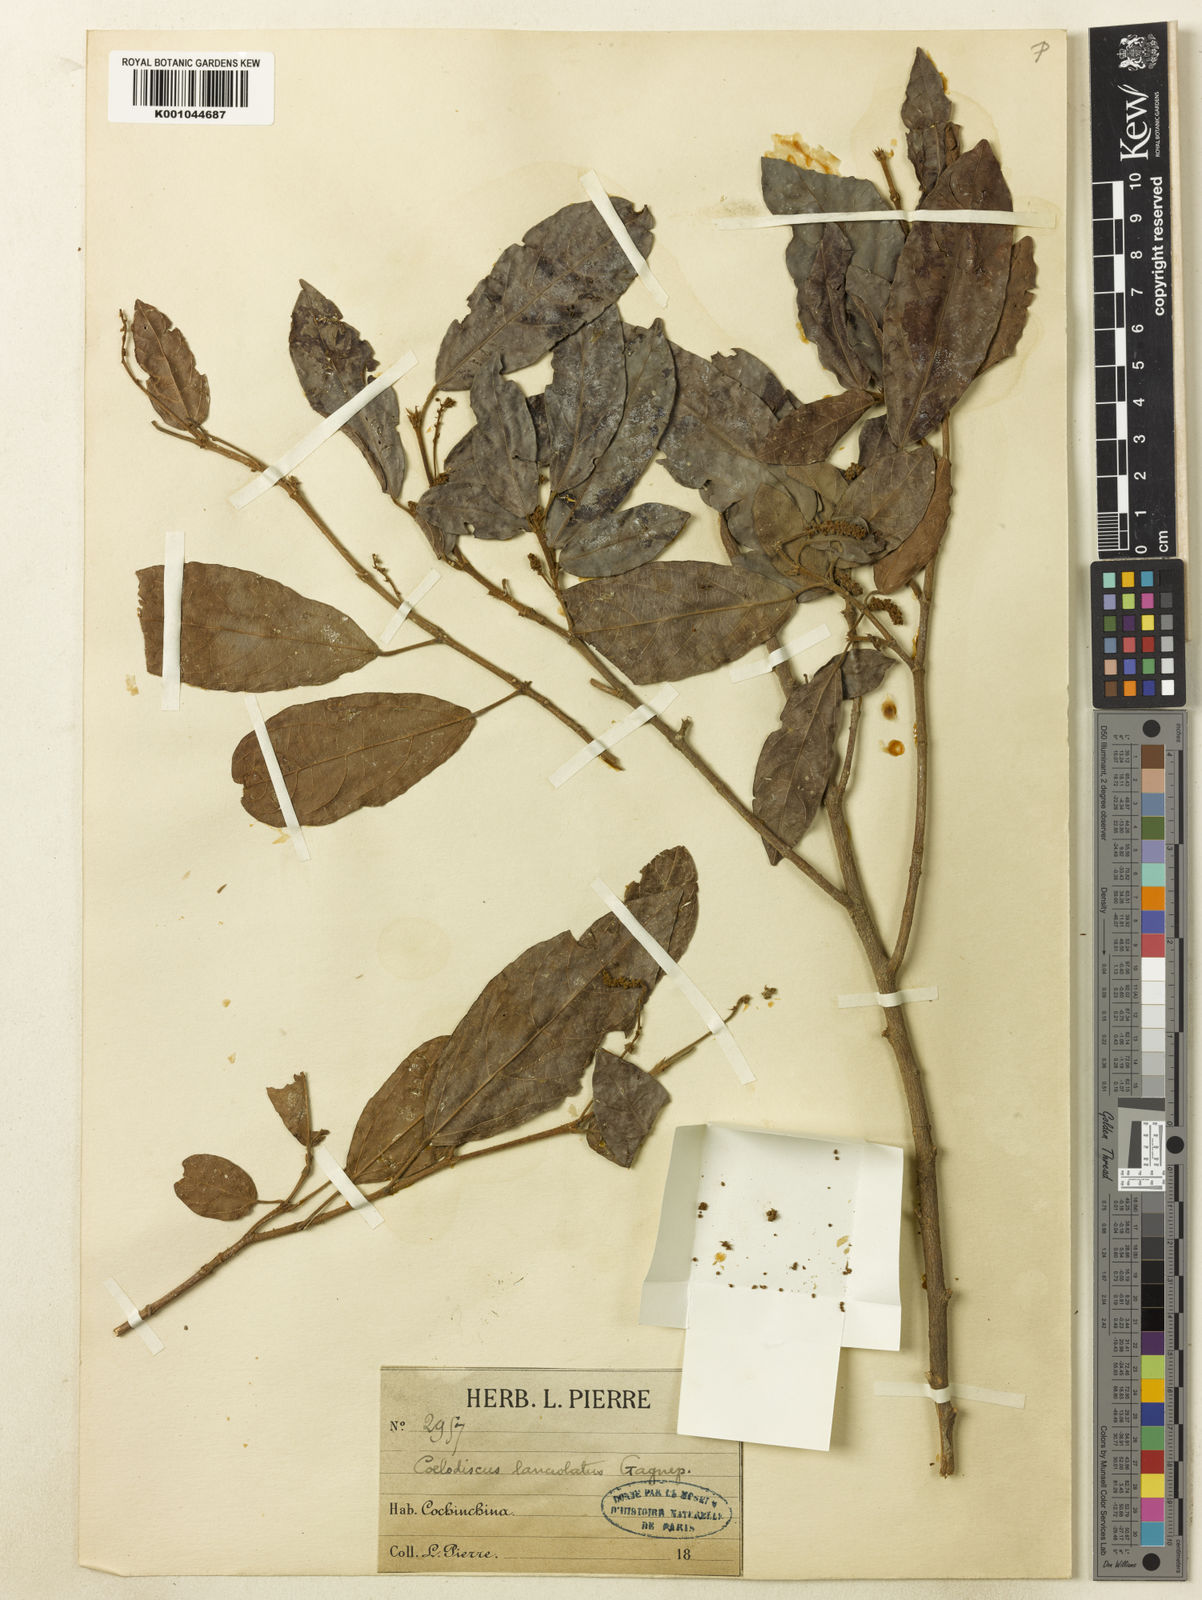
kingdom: Plantae
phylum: Tracheophyta
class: Magnoliopsida
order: Malpighiales
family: Euphorbiaceae
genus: Mallotus
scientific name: Mallotus lanceolatus
